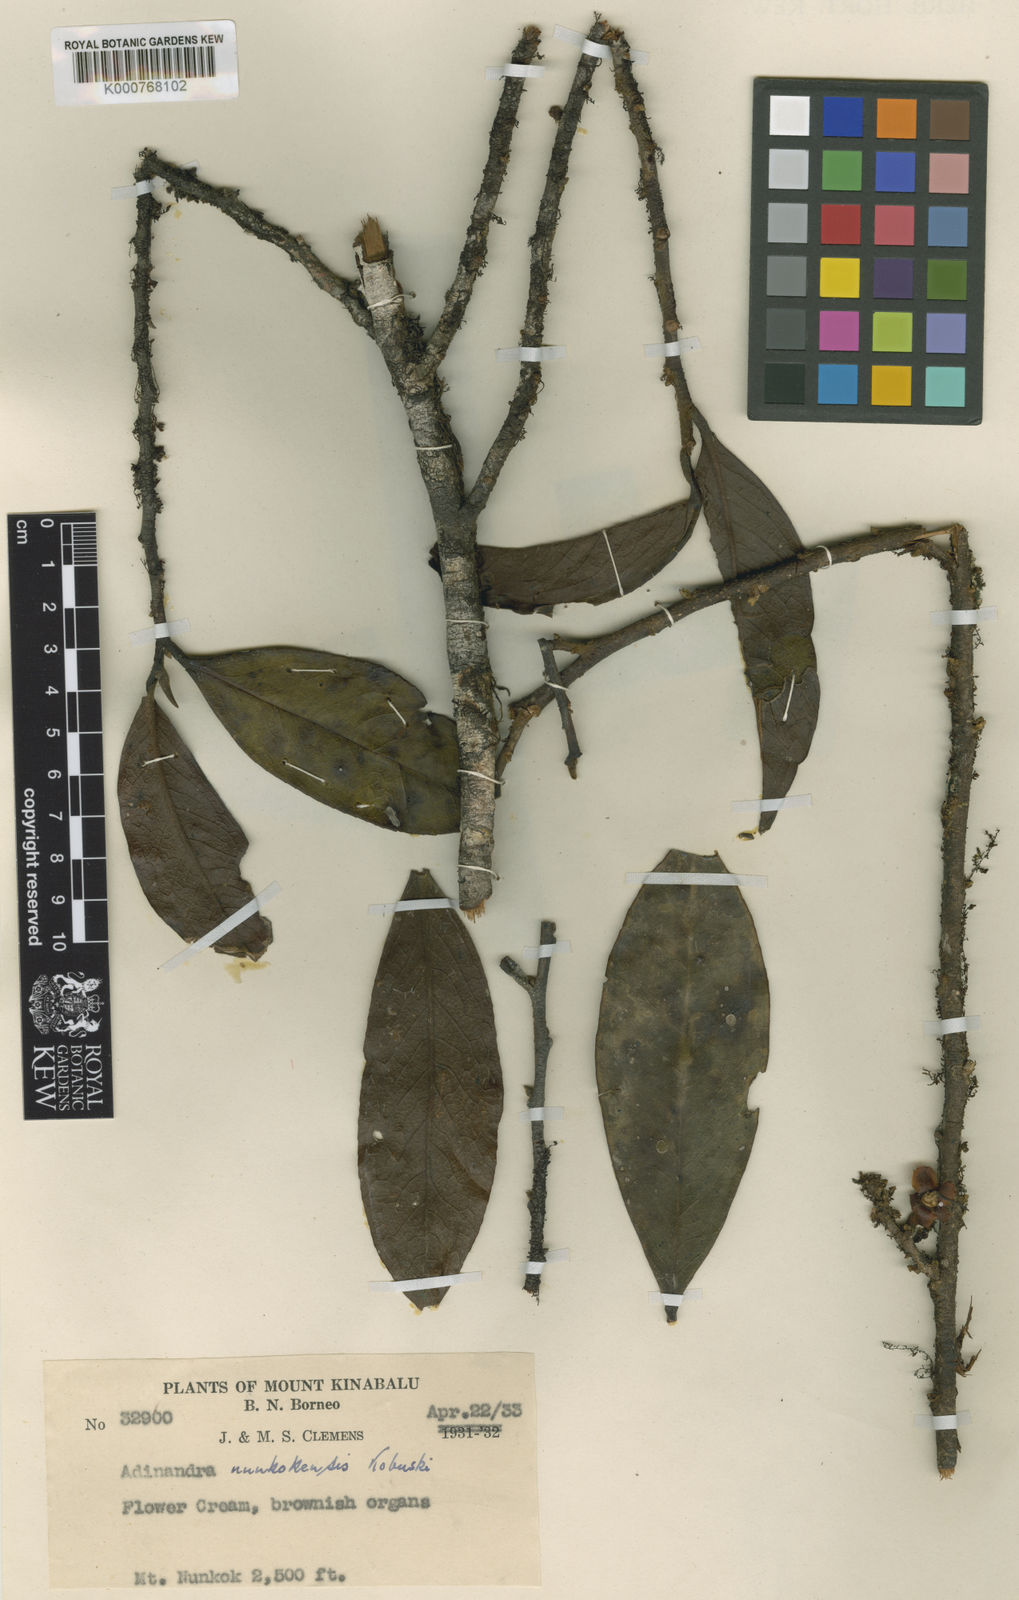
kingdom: Plantae
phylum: Tracheophyta
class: Magnoliopsida
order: Ericales
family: Pentaphylacaceae
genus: Adinandra
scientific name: Adinandra nunkokensis
